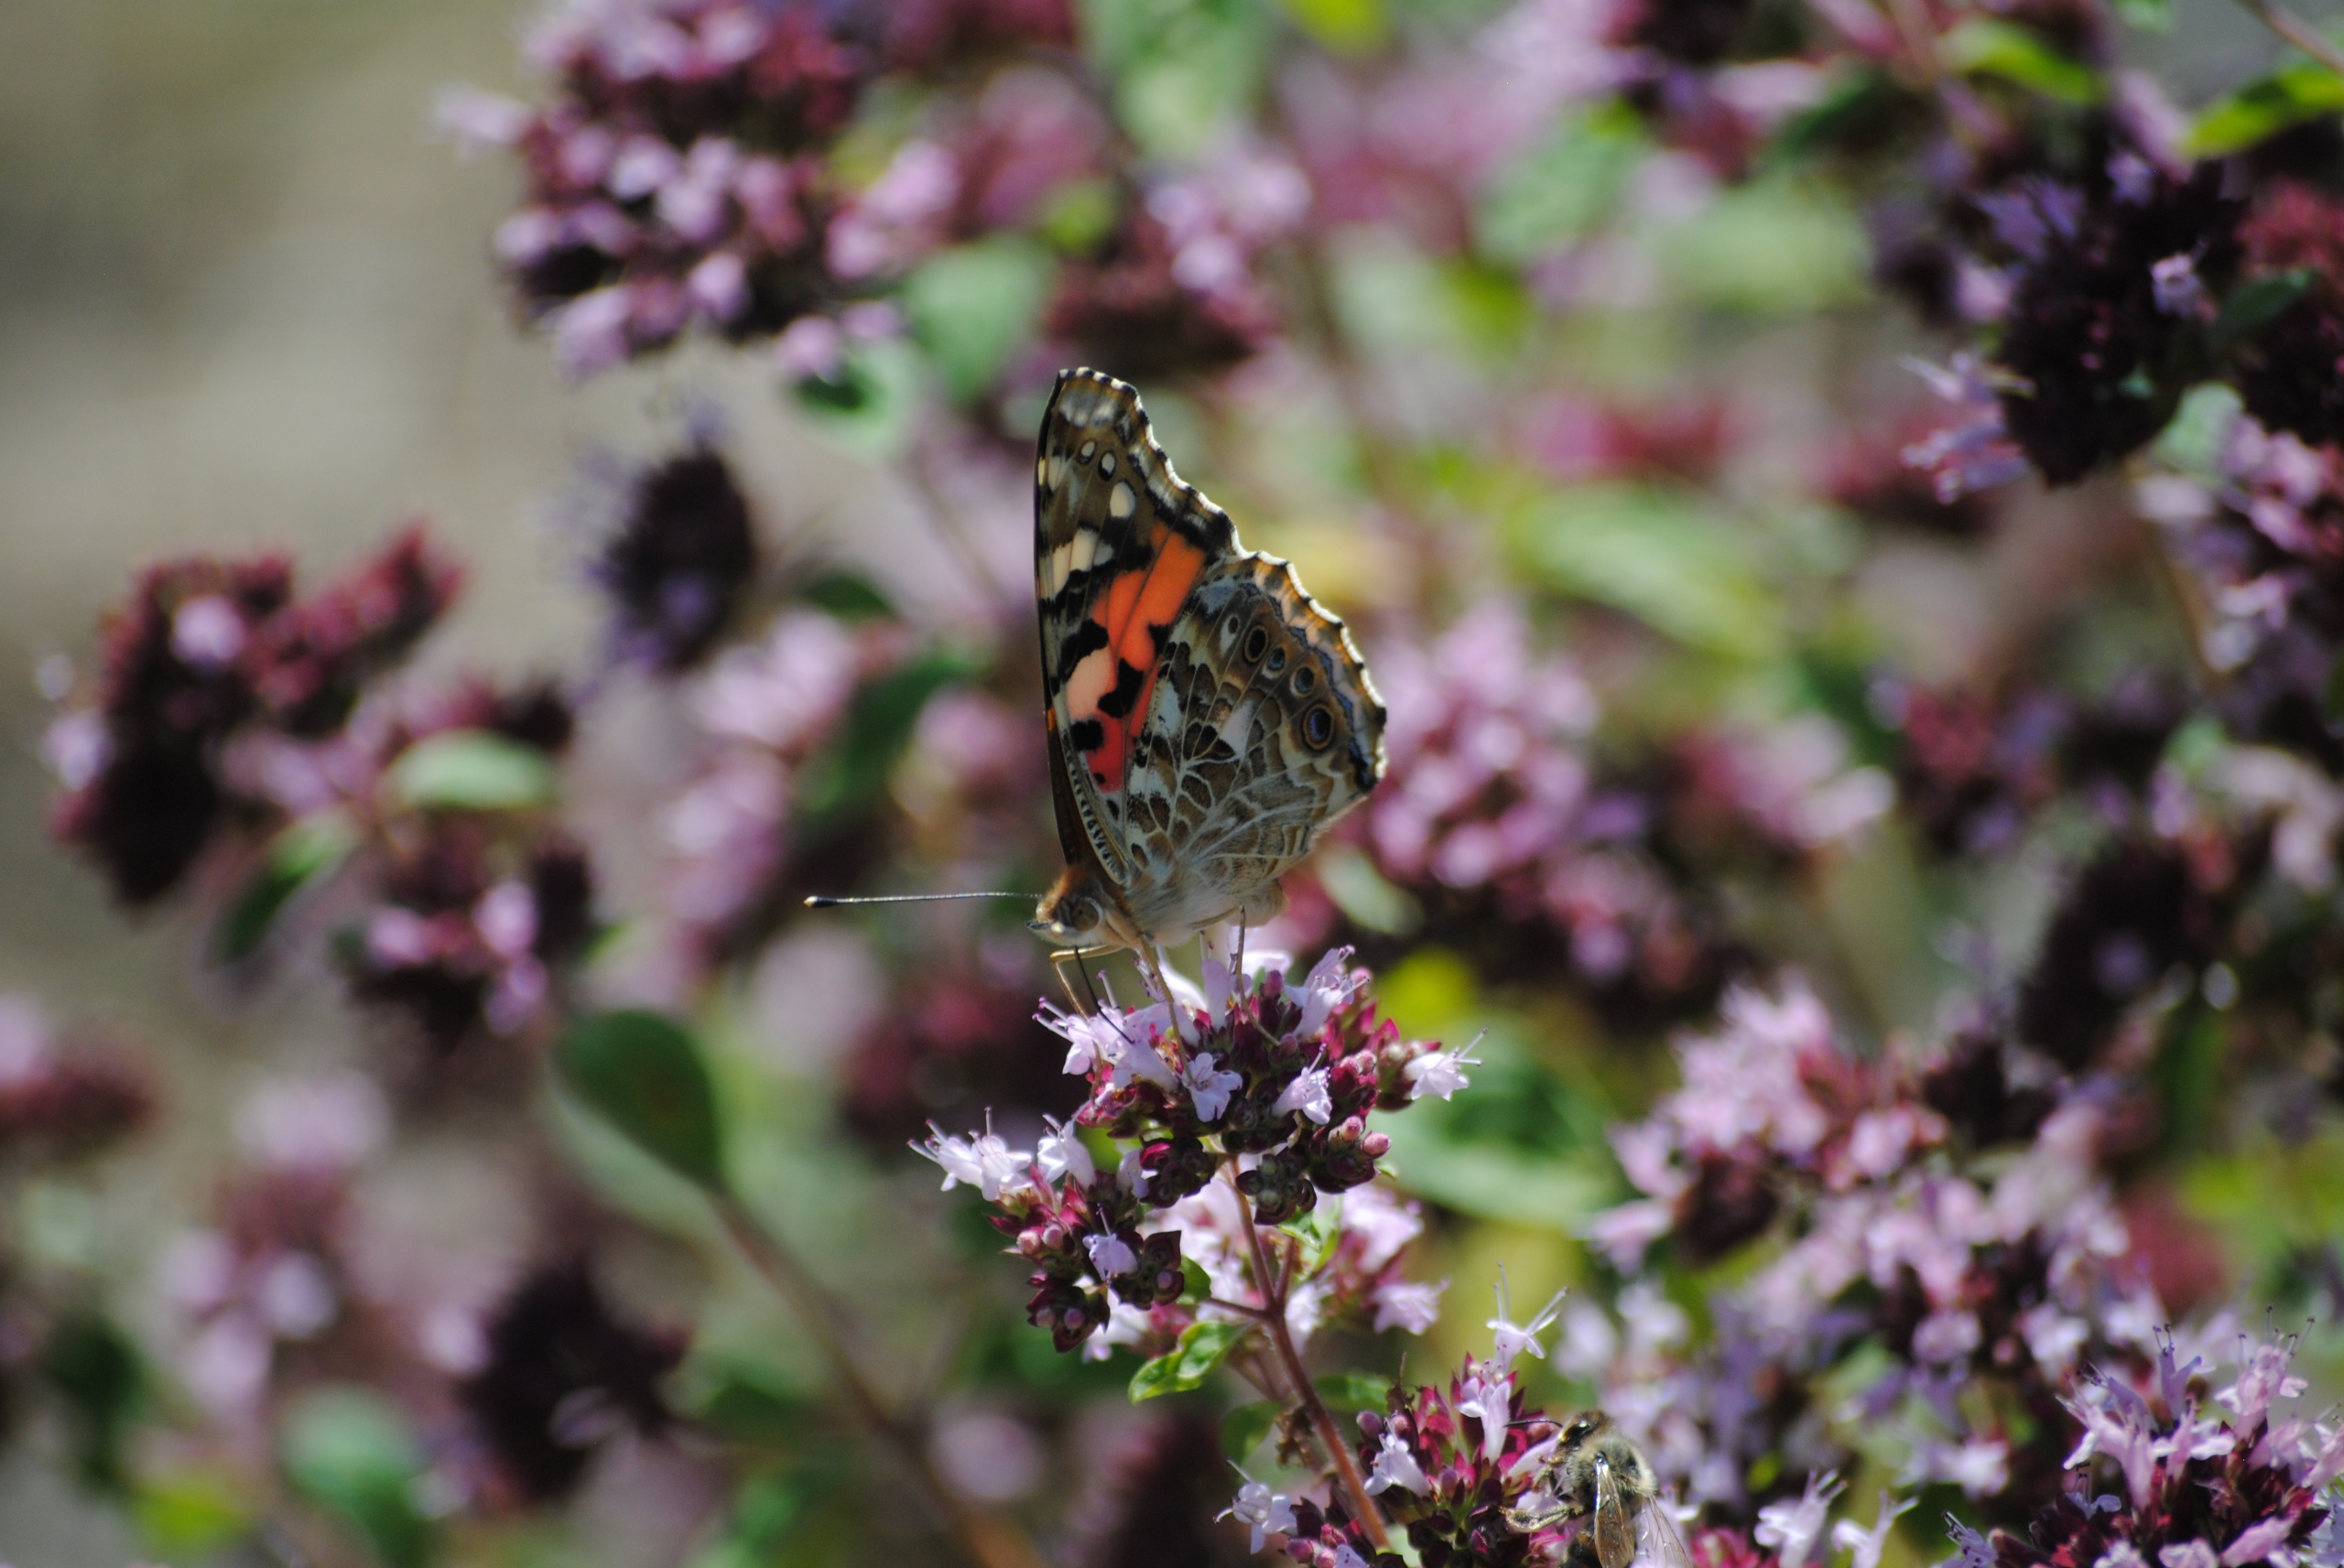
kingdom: Animalia
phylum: Arthropoda
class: Insecta
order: Lepidoptera
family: Nymphalidae
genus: Vanessa
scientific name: Vanessa cardui
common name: Tidselsommerfugl
